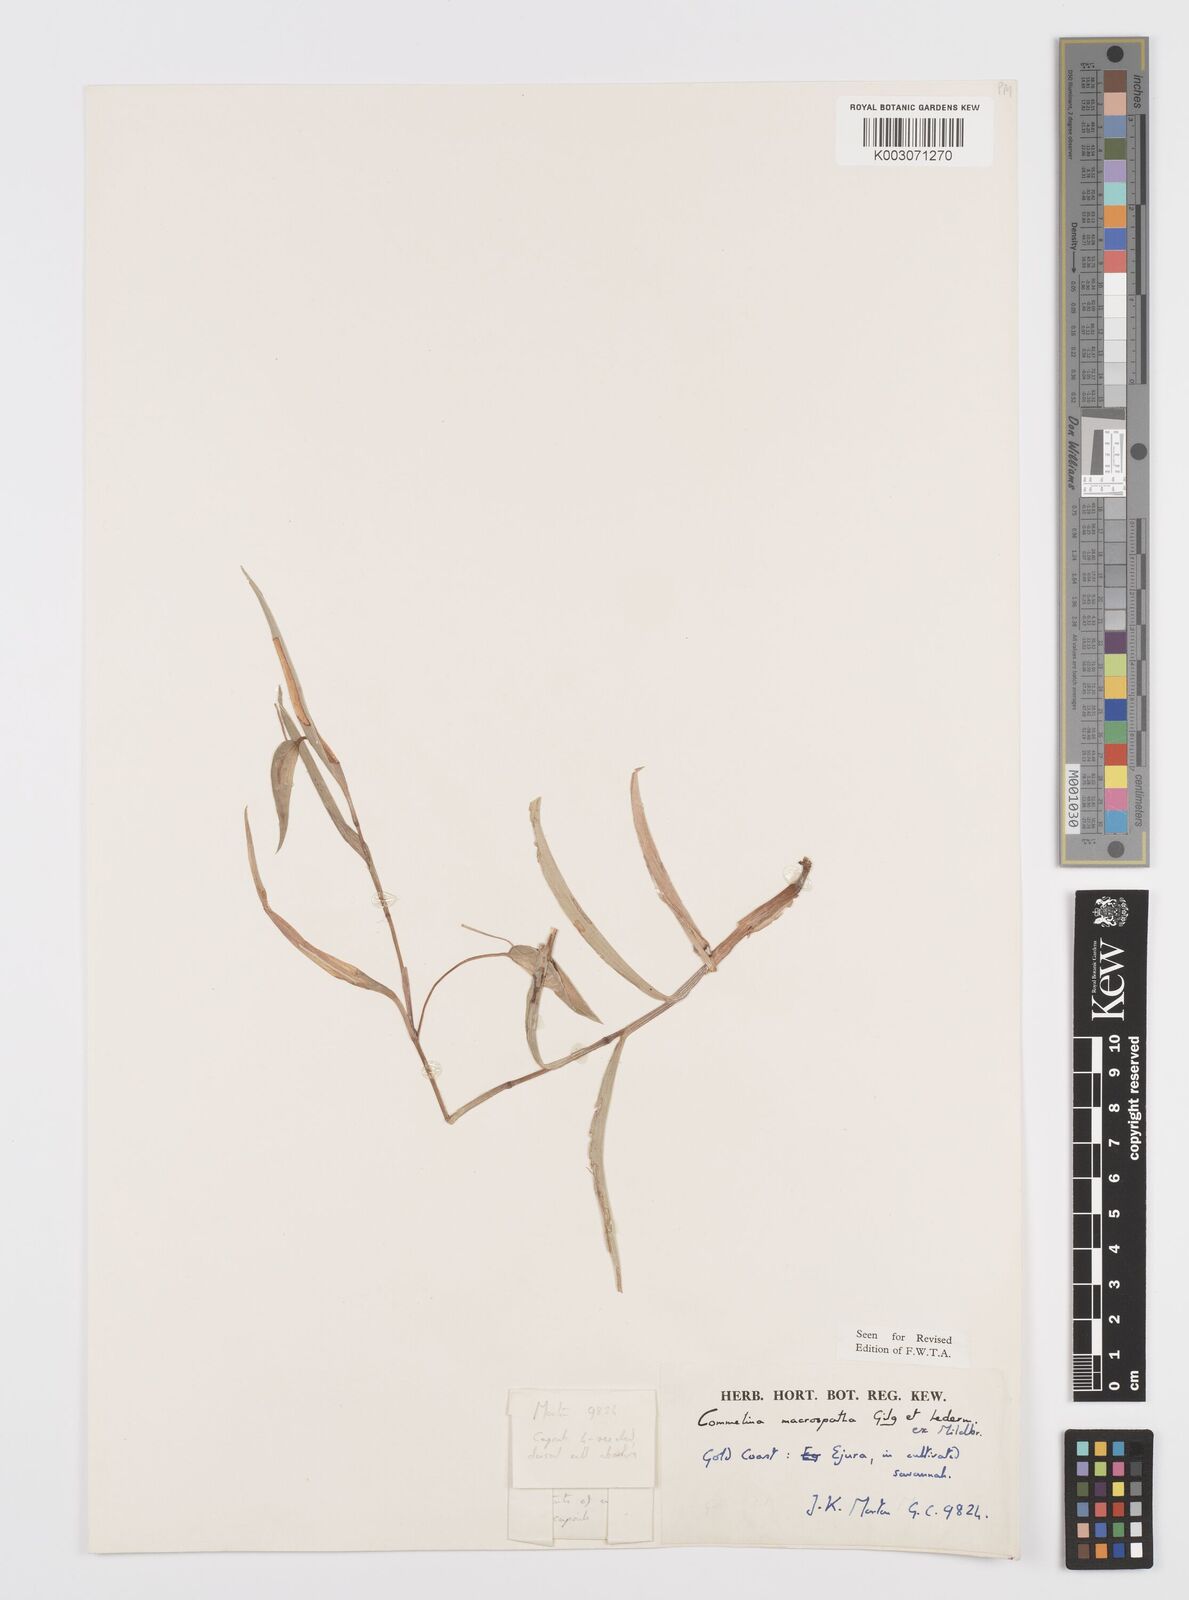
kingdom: Plantae
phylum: Tracheophyta
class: Liliopsida
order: Commelinales
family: Commelinaceae
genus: Commelina
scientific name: Commelina macrospatha
